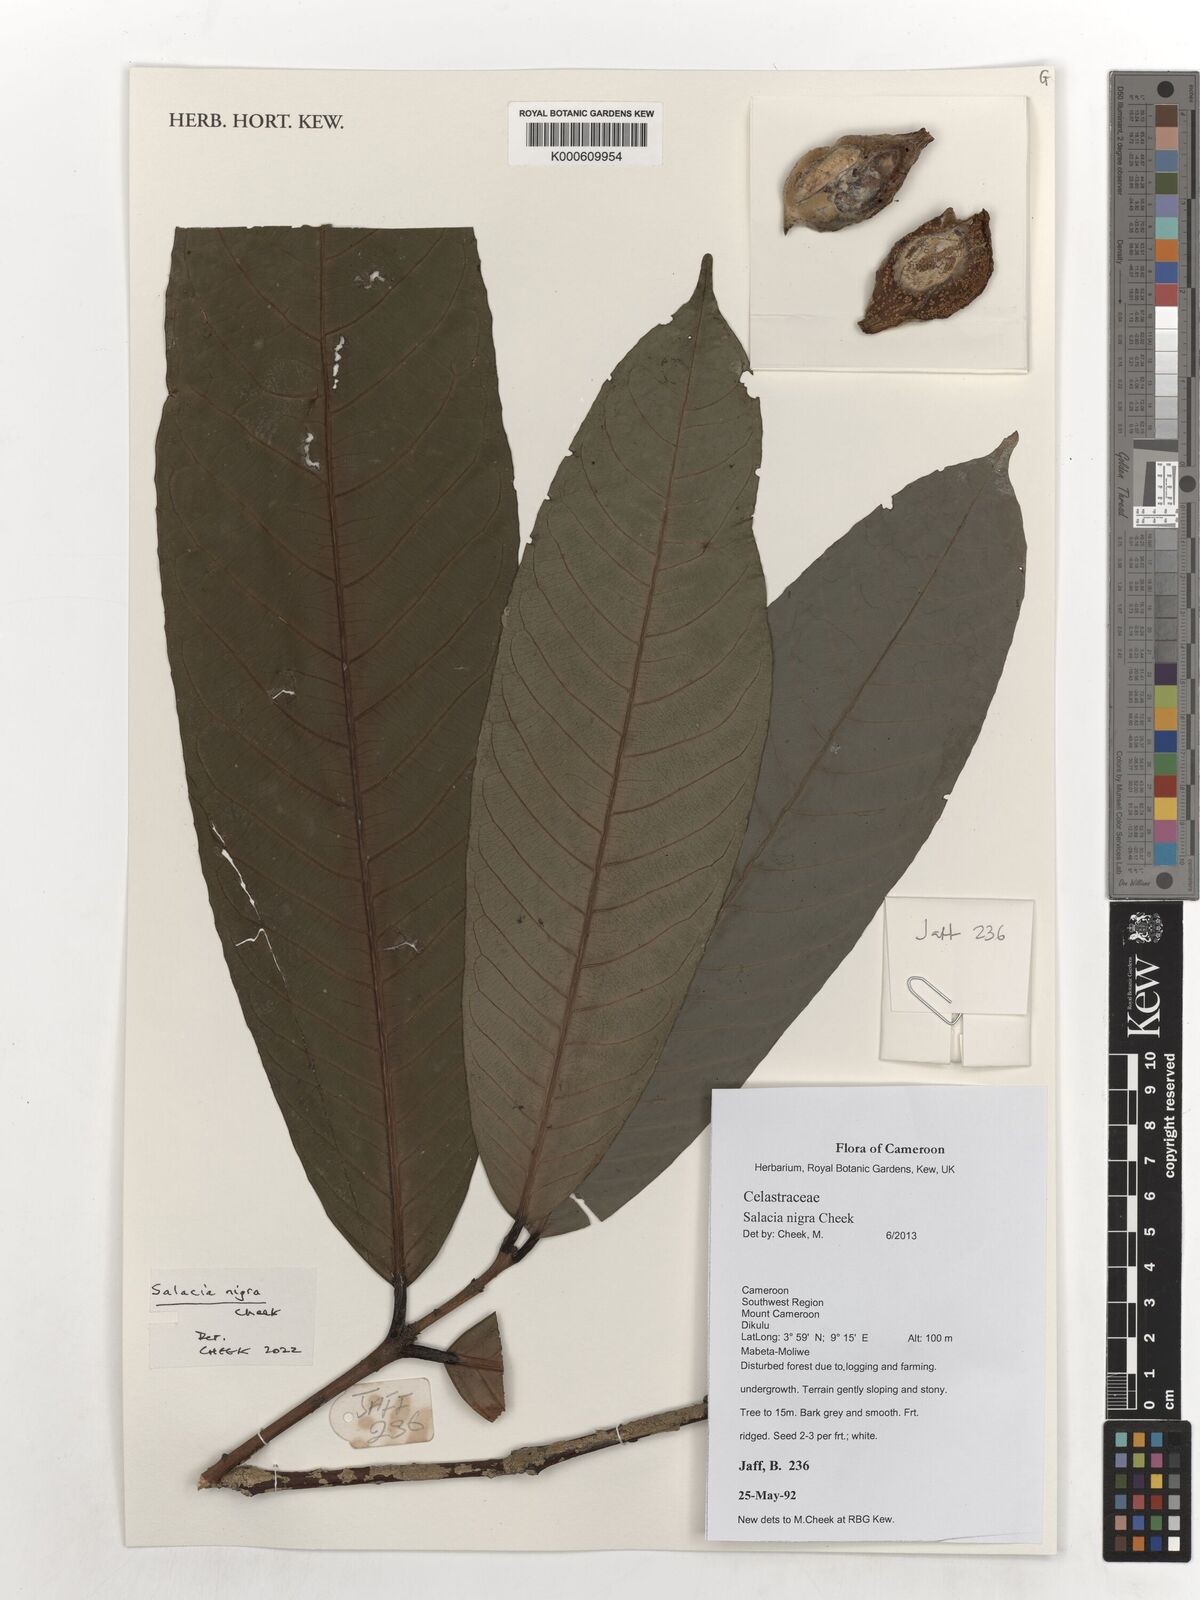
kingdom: Plantae
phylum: Tracheophyta
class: Magnoliopsida
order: Celastrales
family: Celastraceae
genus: Salacia
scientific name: Salacia nigra
